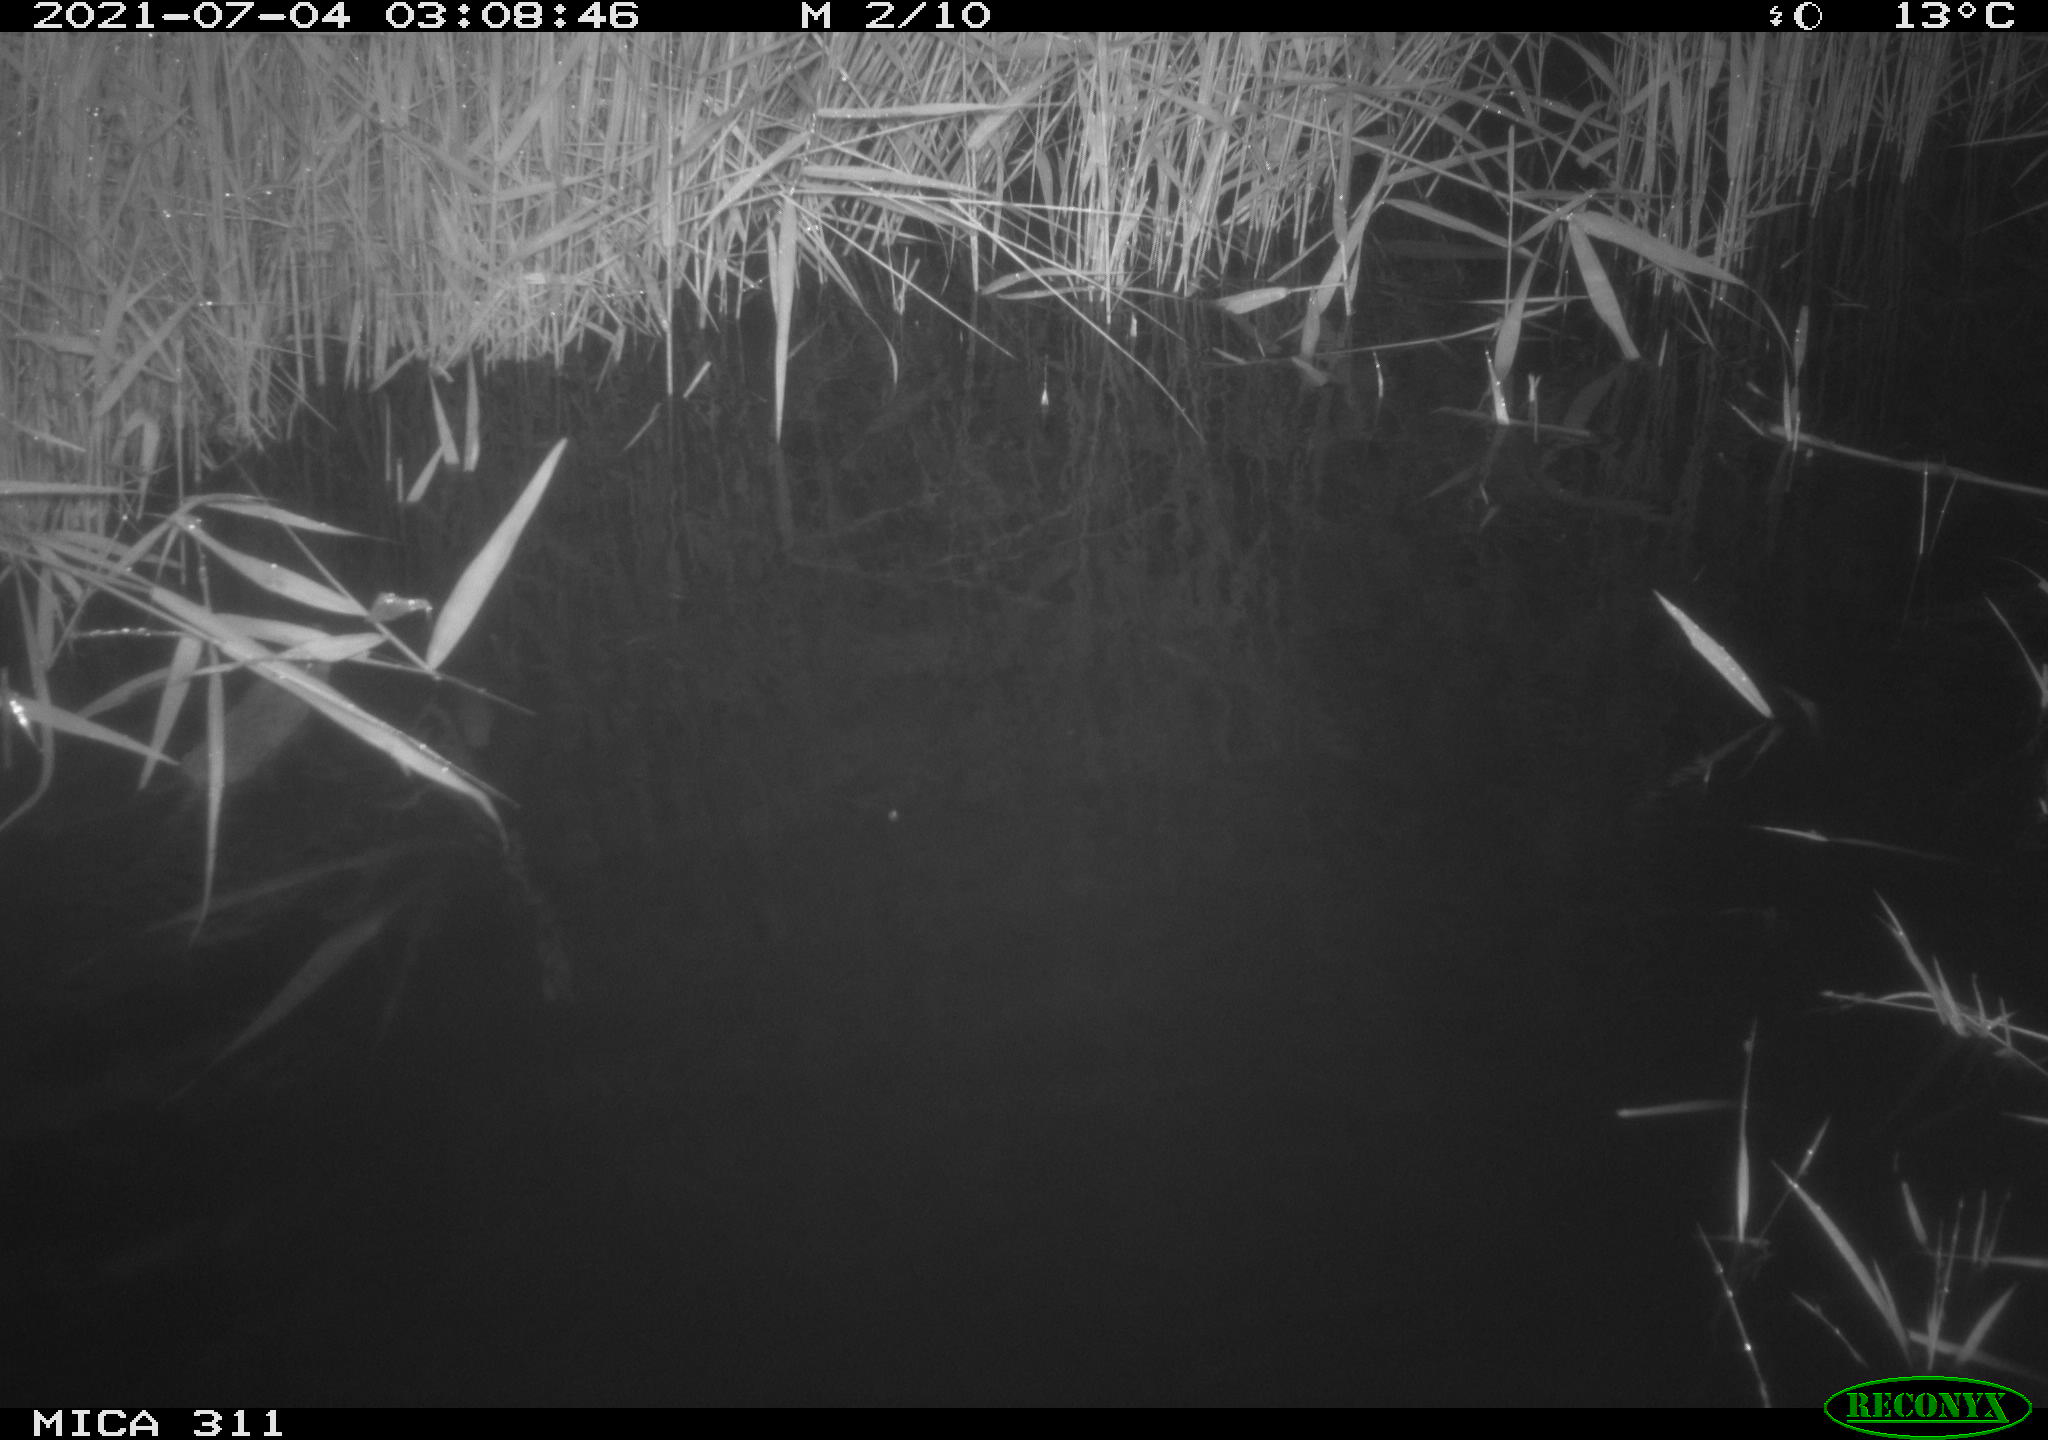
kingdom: Animalia
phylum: Chordata
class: Mammalia
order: Rodentia
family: Muridae
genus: Rattus
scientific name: Rattus norvegicus
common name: Brown rat
